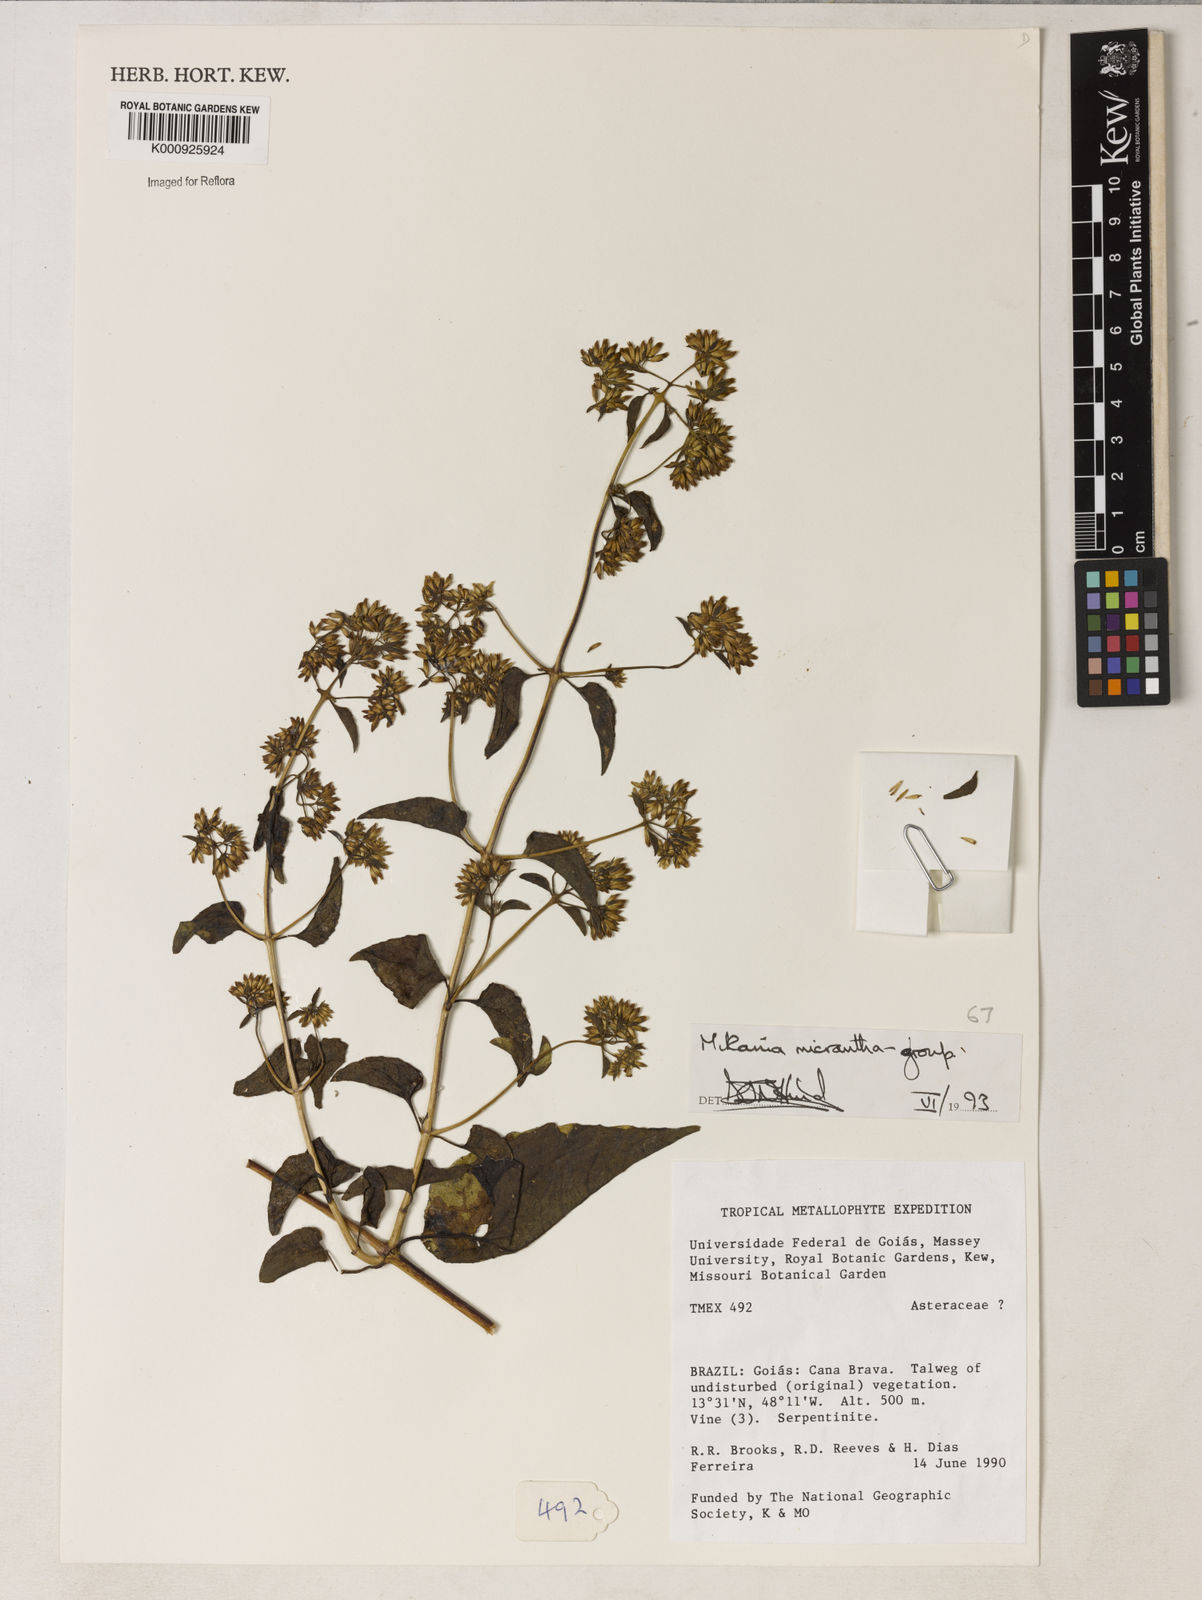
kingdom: Plantae
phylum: Tracheophyta
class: Magnoliopsida
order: Asterales
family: Asteraceae
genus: Mikania
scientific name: Mikania micrantha
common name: Mile-a-minute
